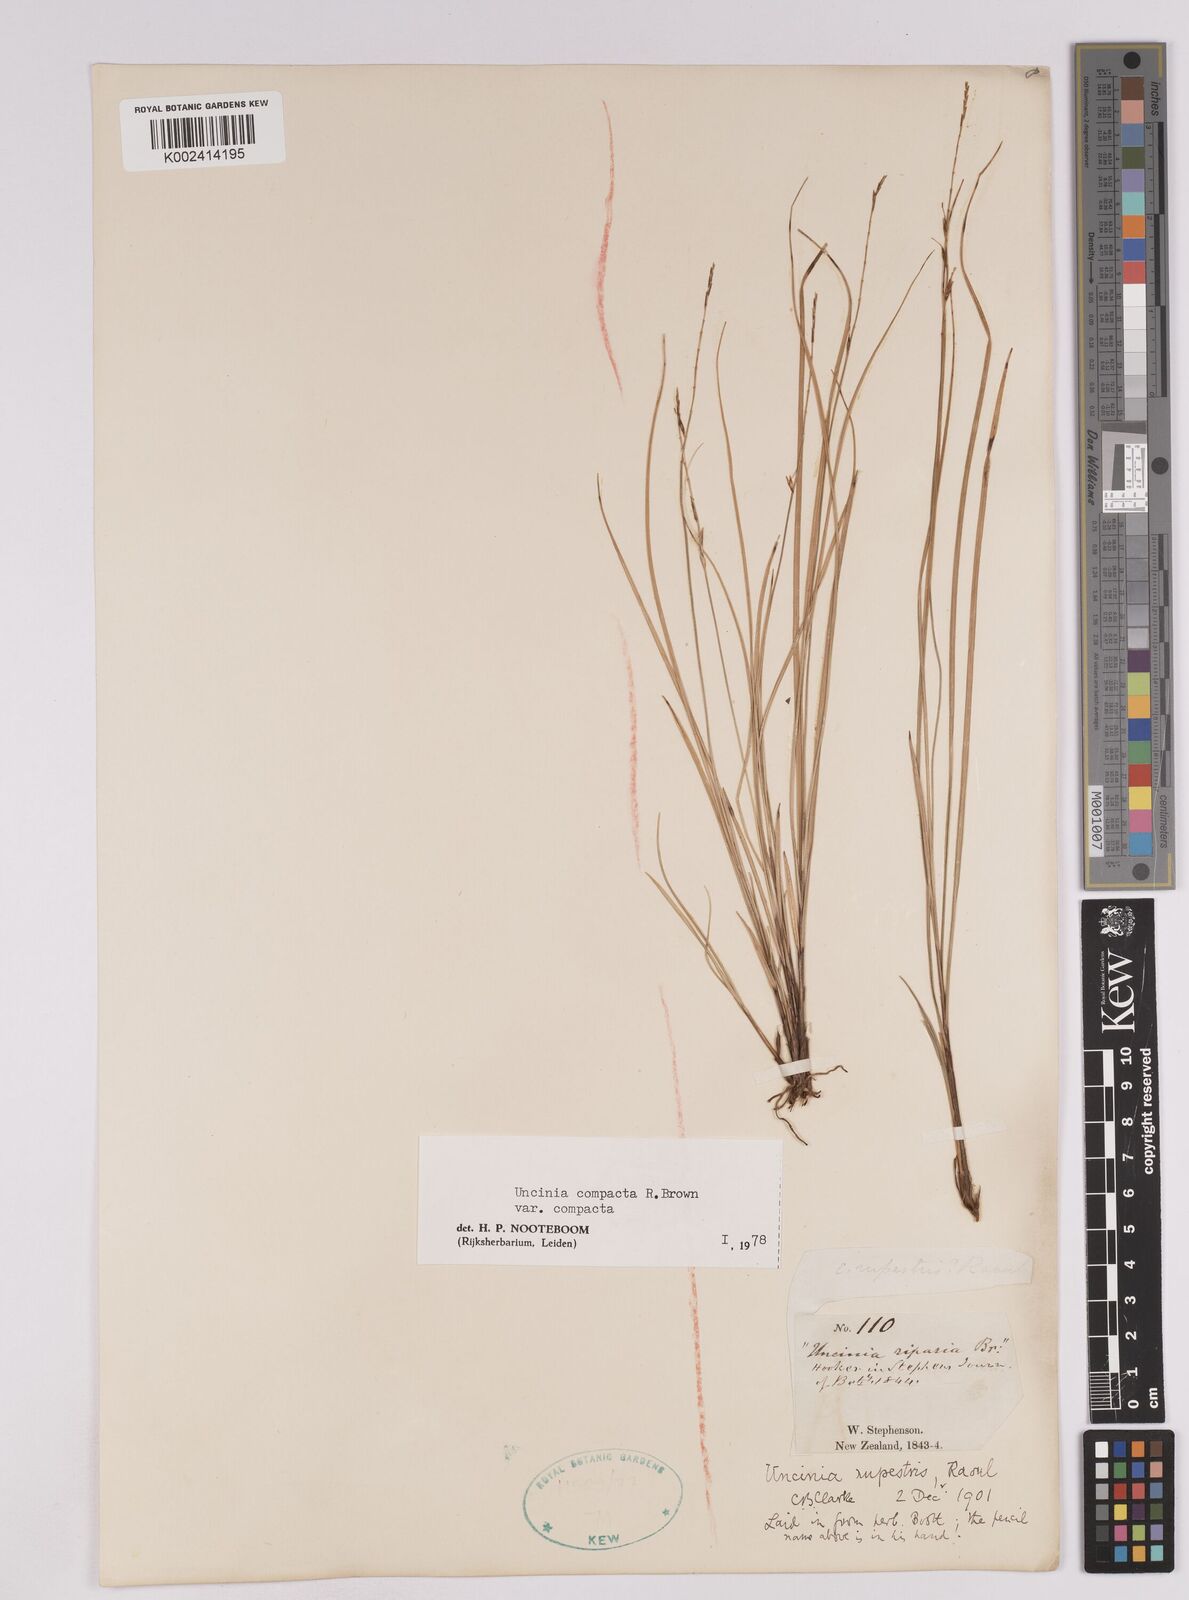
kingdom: Plantae
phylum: Tracheophyta
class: Liliopsida
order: Poales
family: Cyperaceae
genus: Carex
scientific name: Carex austrocompacta
